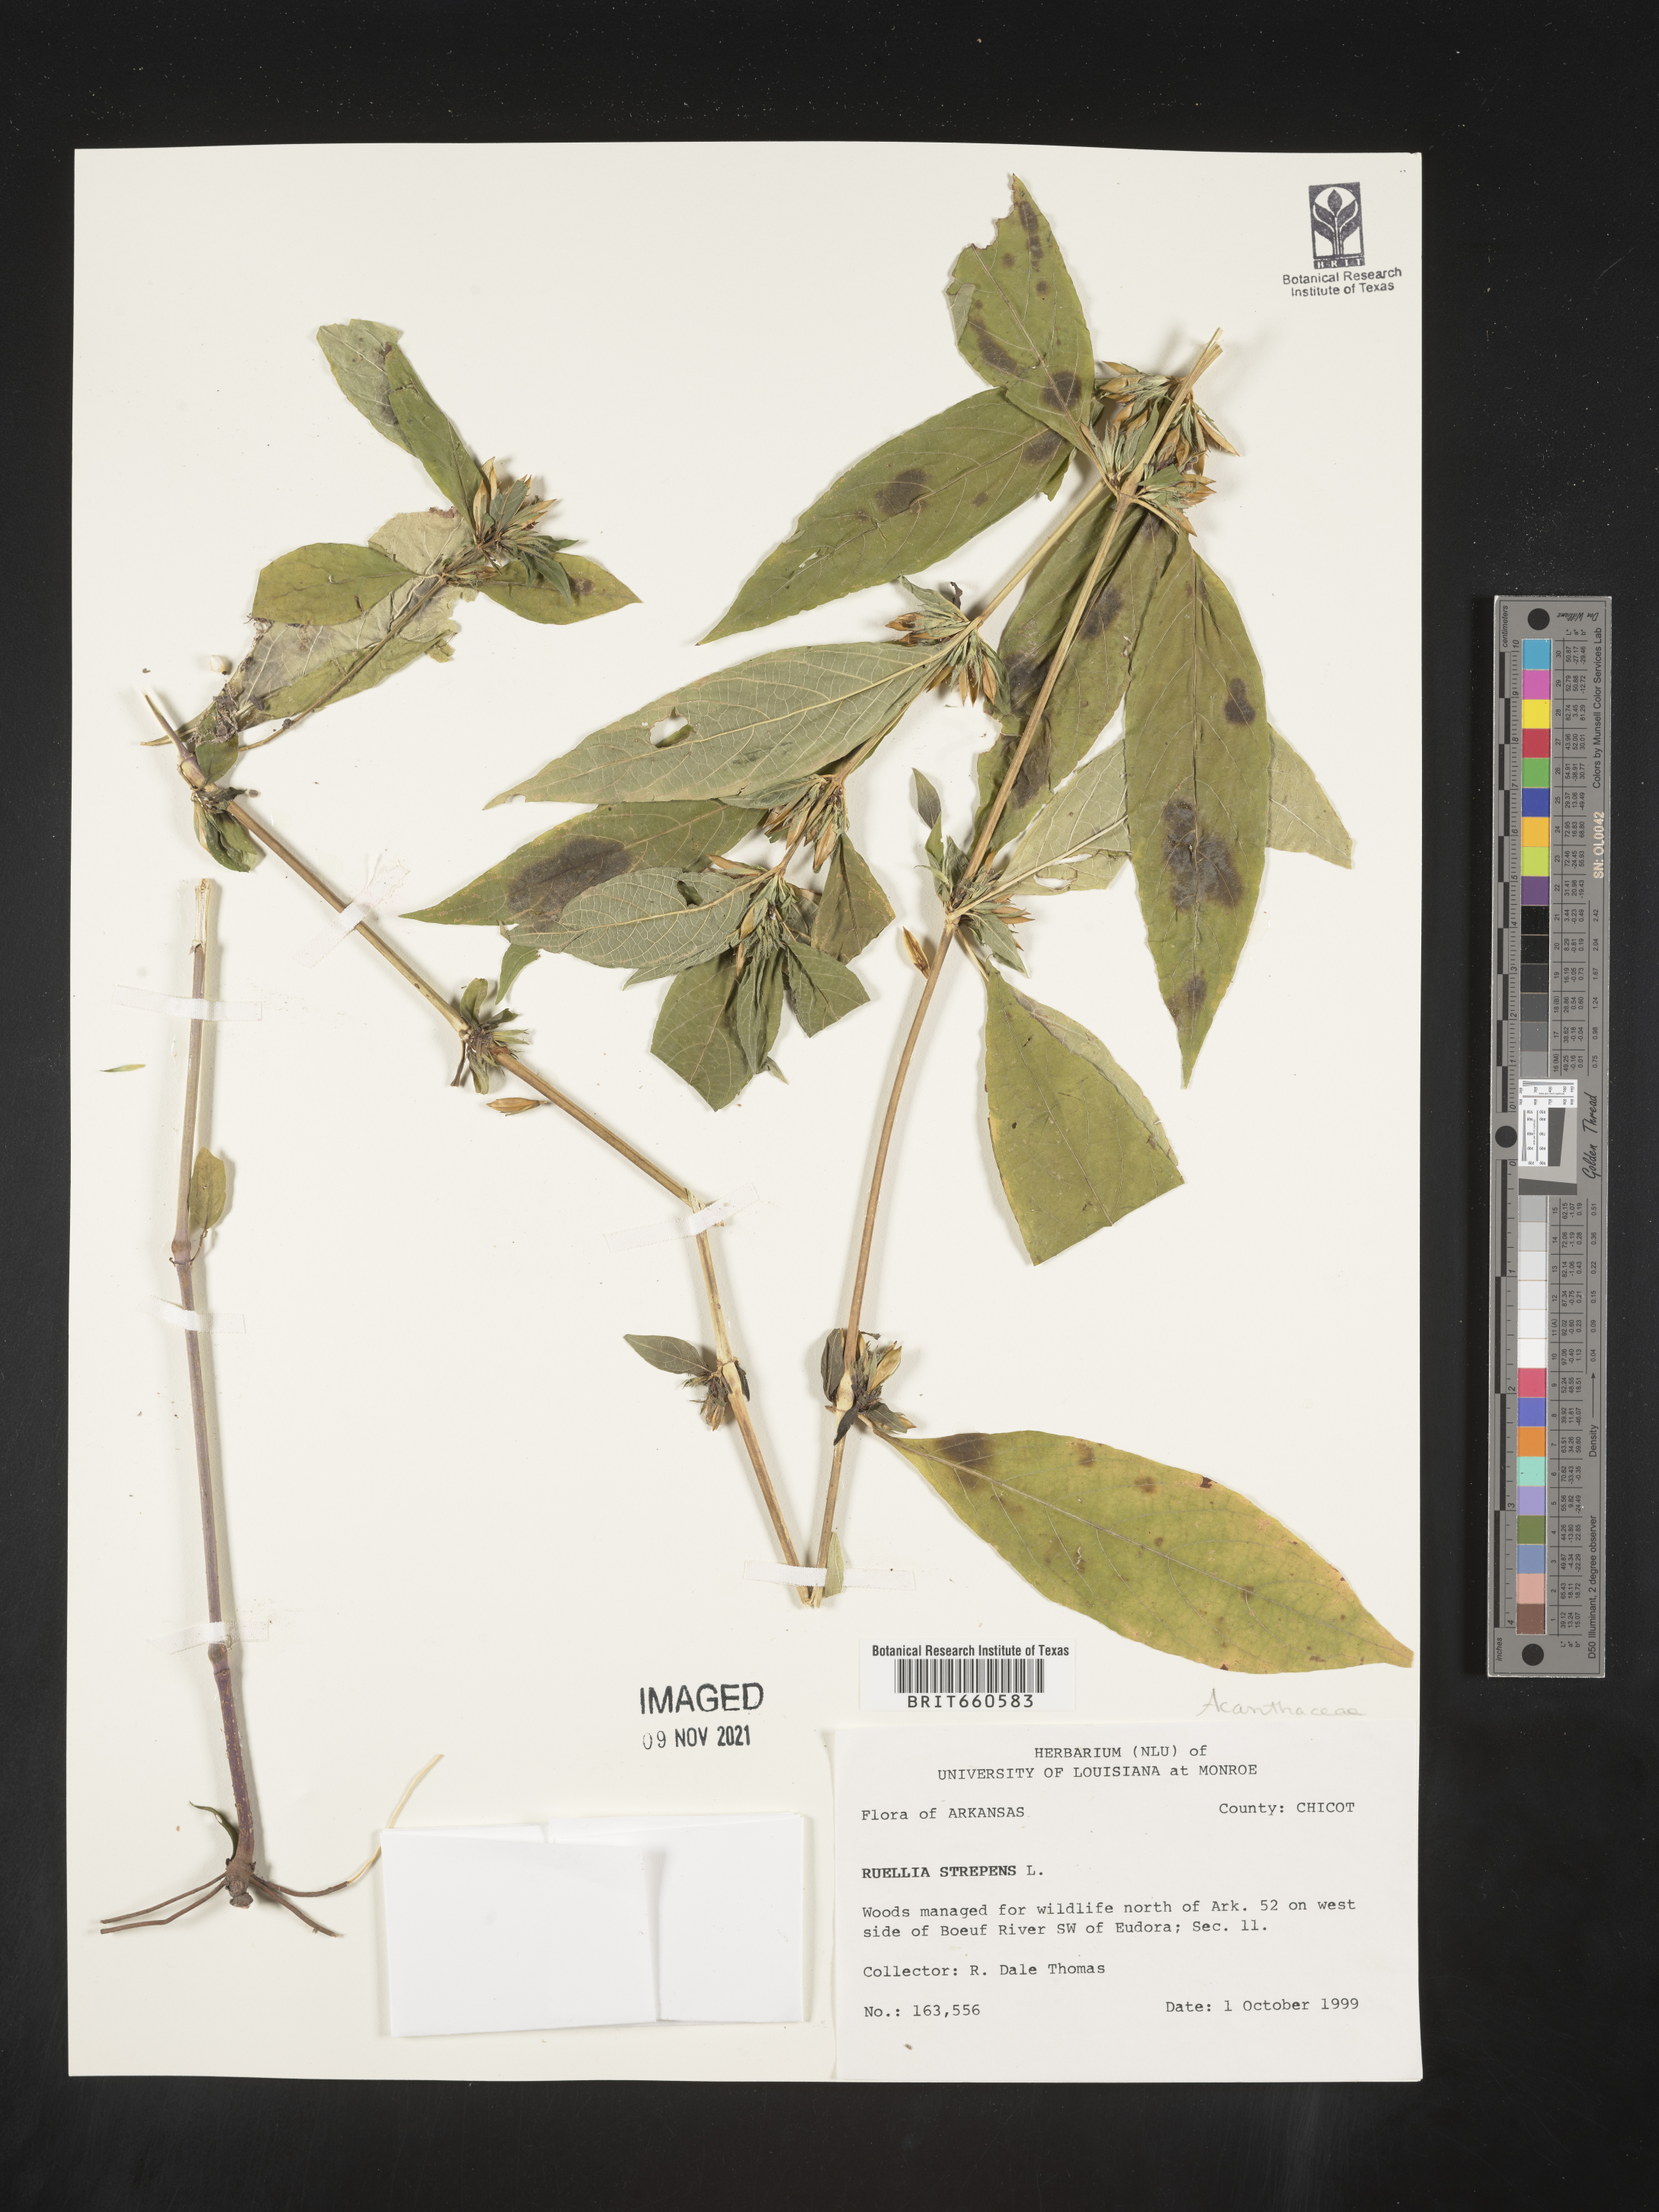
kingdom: Plantae
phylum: Tracheophyta
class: Magnoliopsida
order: Lamiales
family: Acanthaceae
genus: Ruellia
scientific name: Ruellia strepens
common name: Limestone wild petunia
